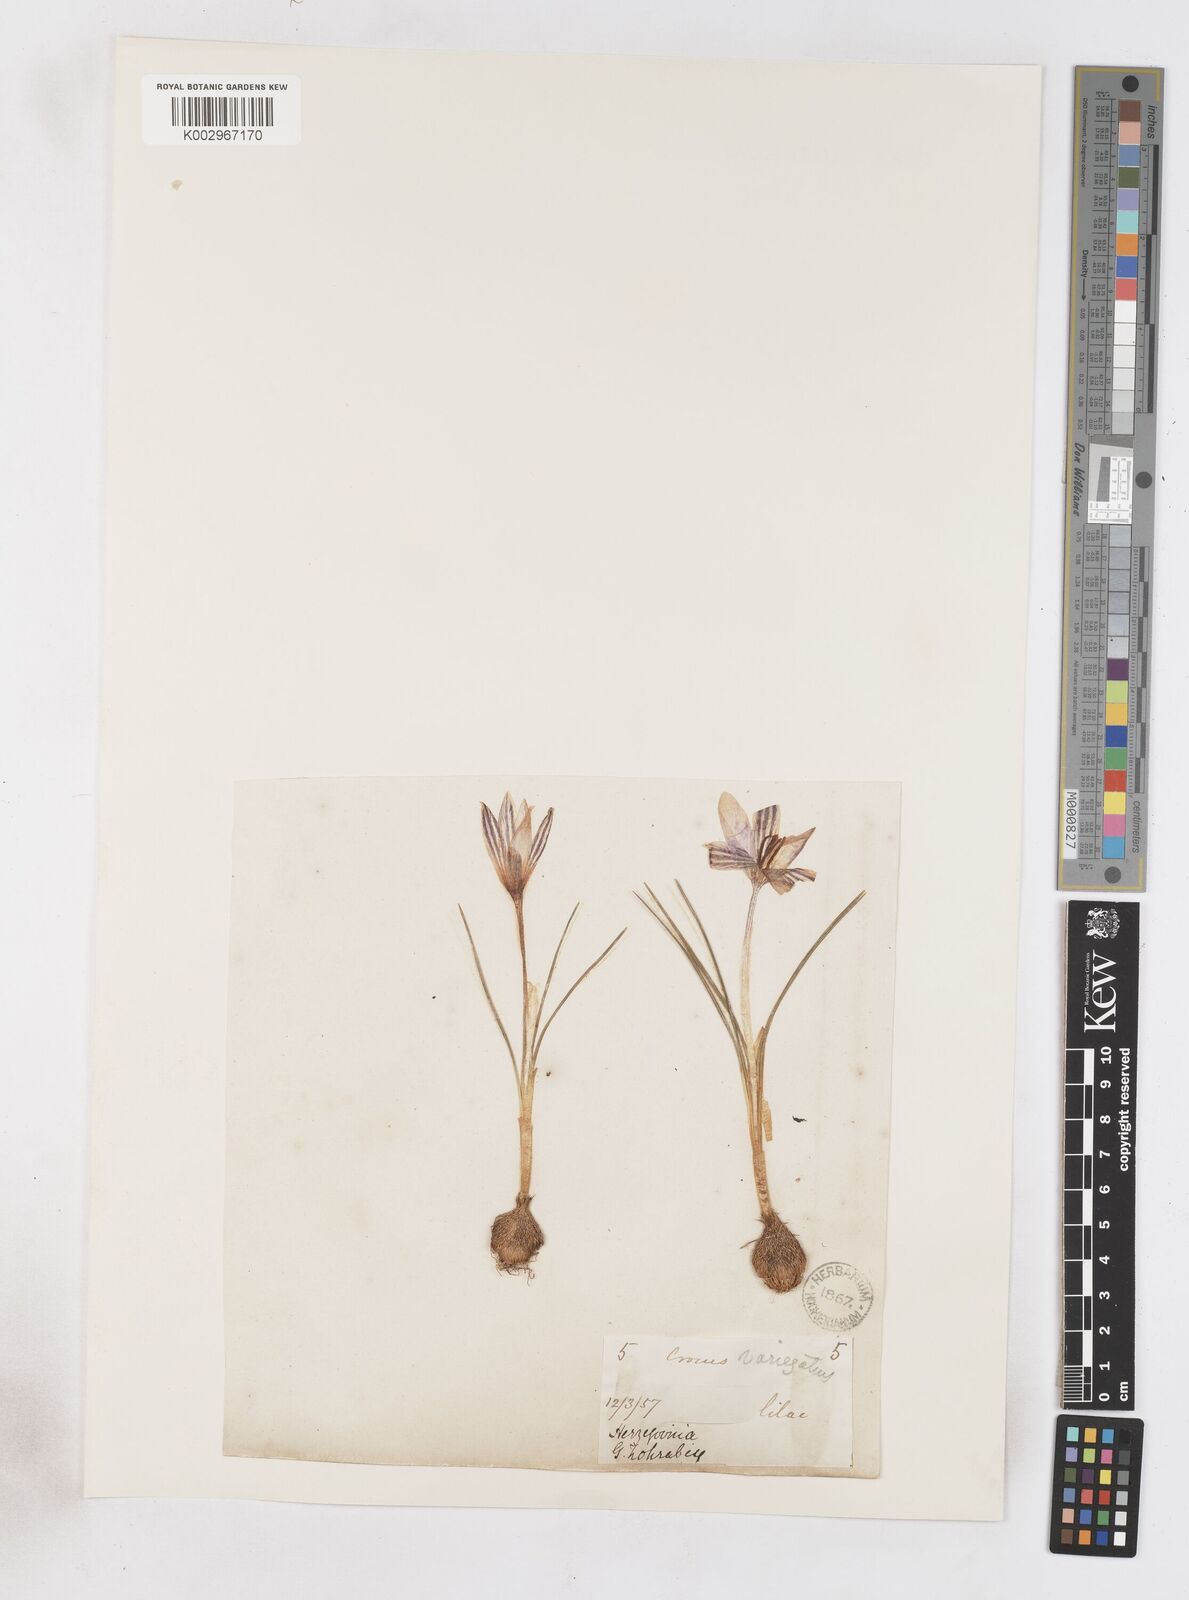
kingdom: Plantae
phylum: Tracheophyta
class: Liliopsida
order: Asparagales
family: Iridaceae
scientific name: Iridaceae
